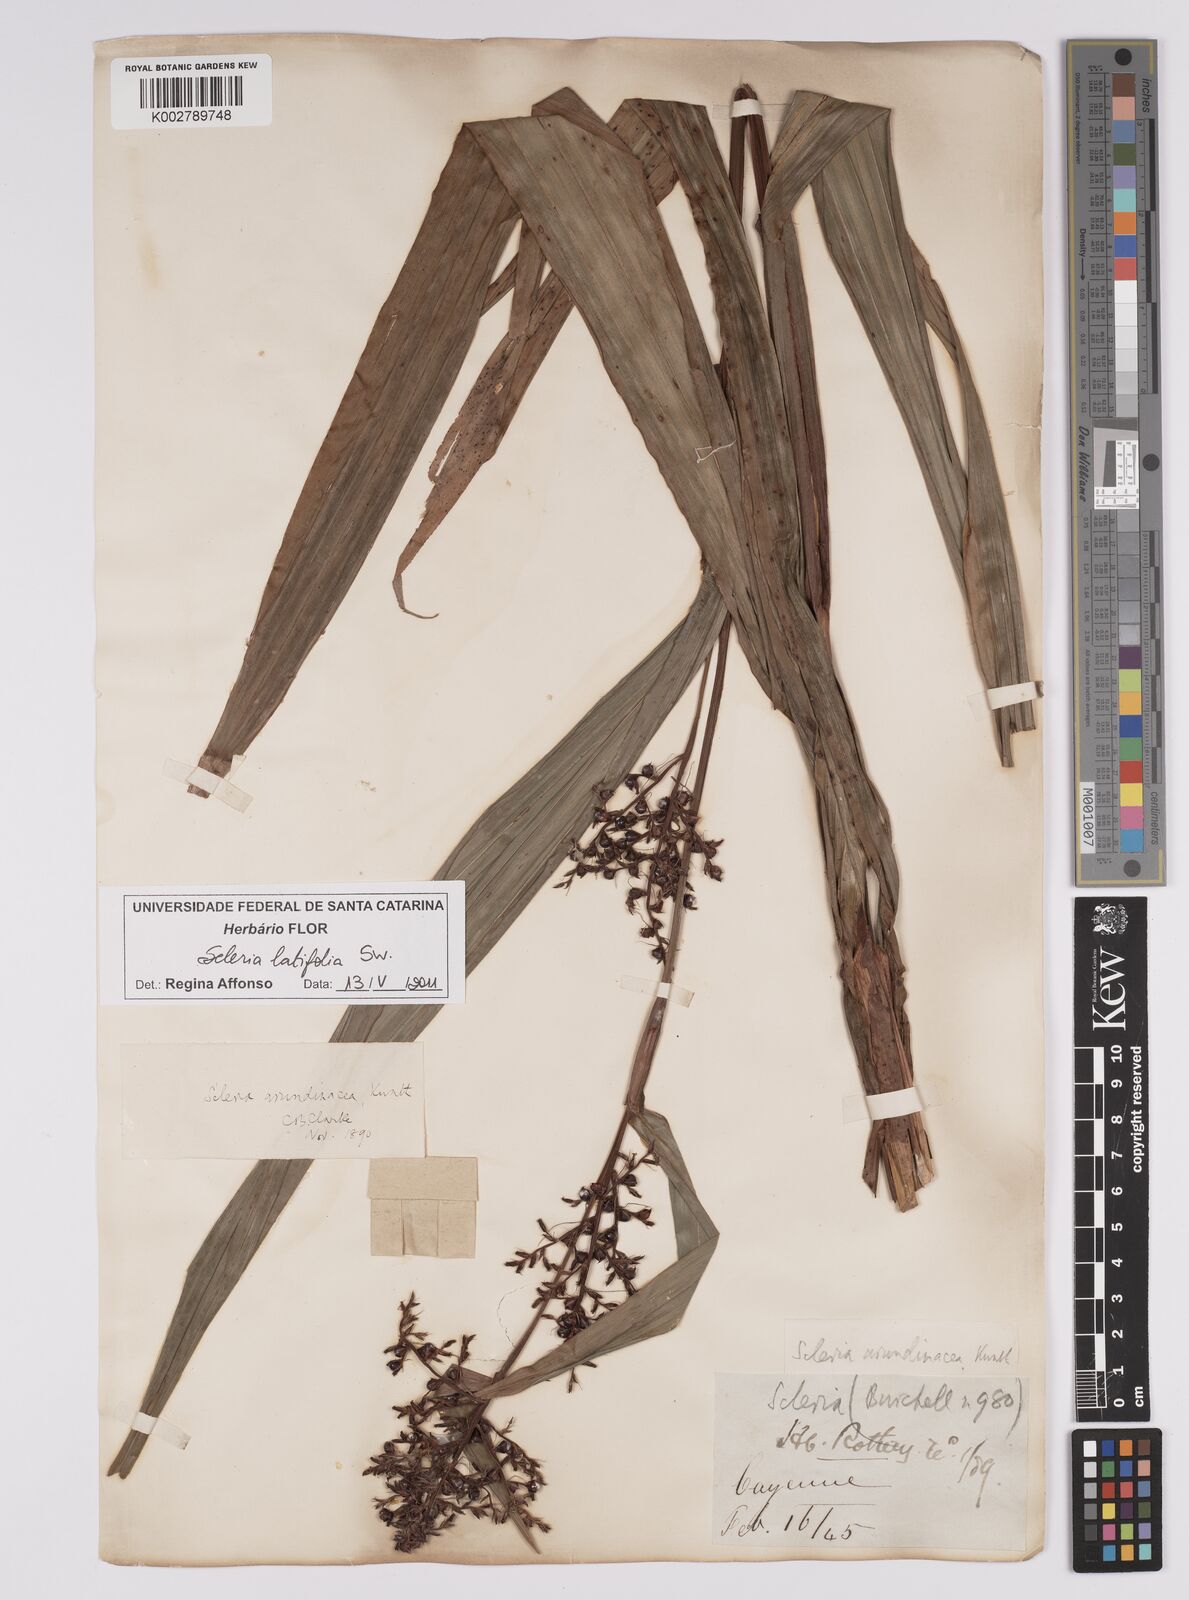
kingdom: Plantae
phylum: Tracheophyta
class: Liliopsida
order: Poales
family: Cyperaceae
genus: Scleria
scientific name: Scleria latifolia
